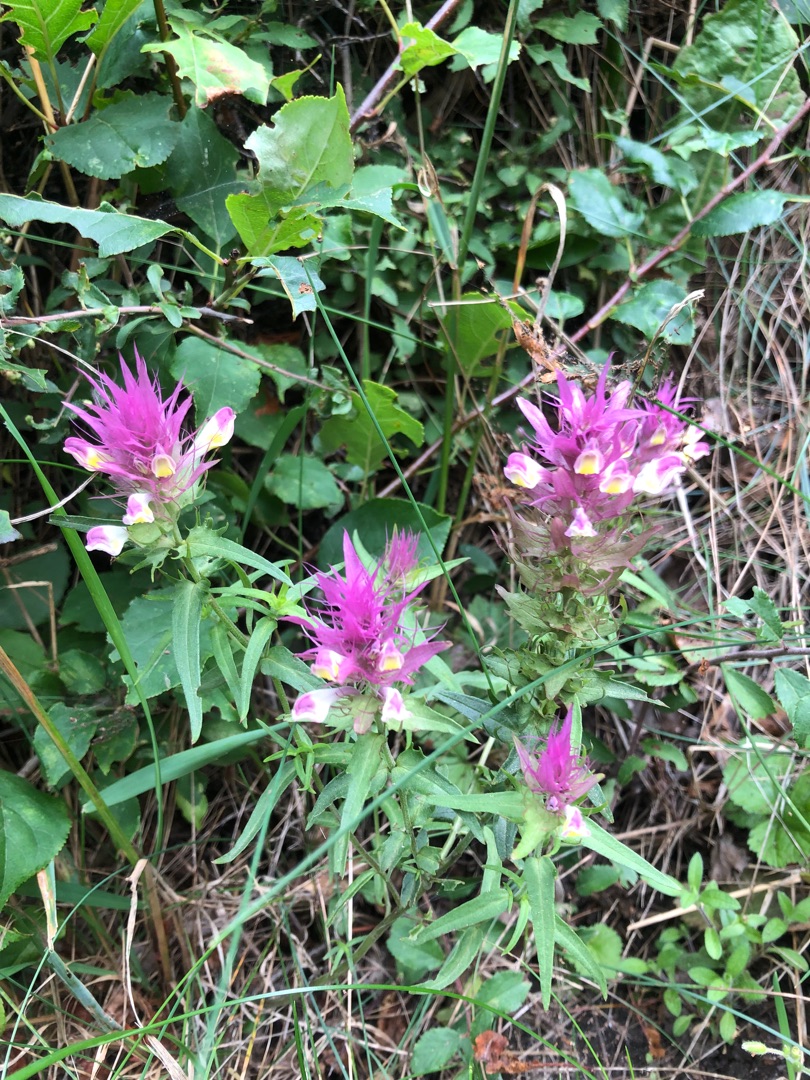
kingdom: Plantae
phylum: Tracheophyta
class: Magnoliopsida
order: Lamiales
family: Orobanchaceae
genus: Melampyrum
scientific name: Melampyrum arvense
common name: Ager-kohvede
